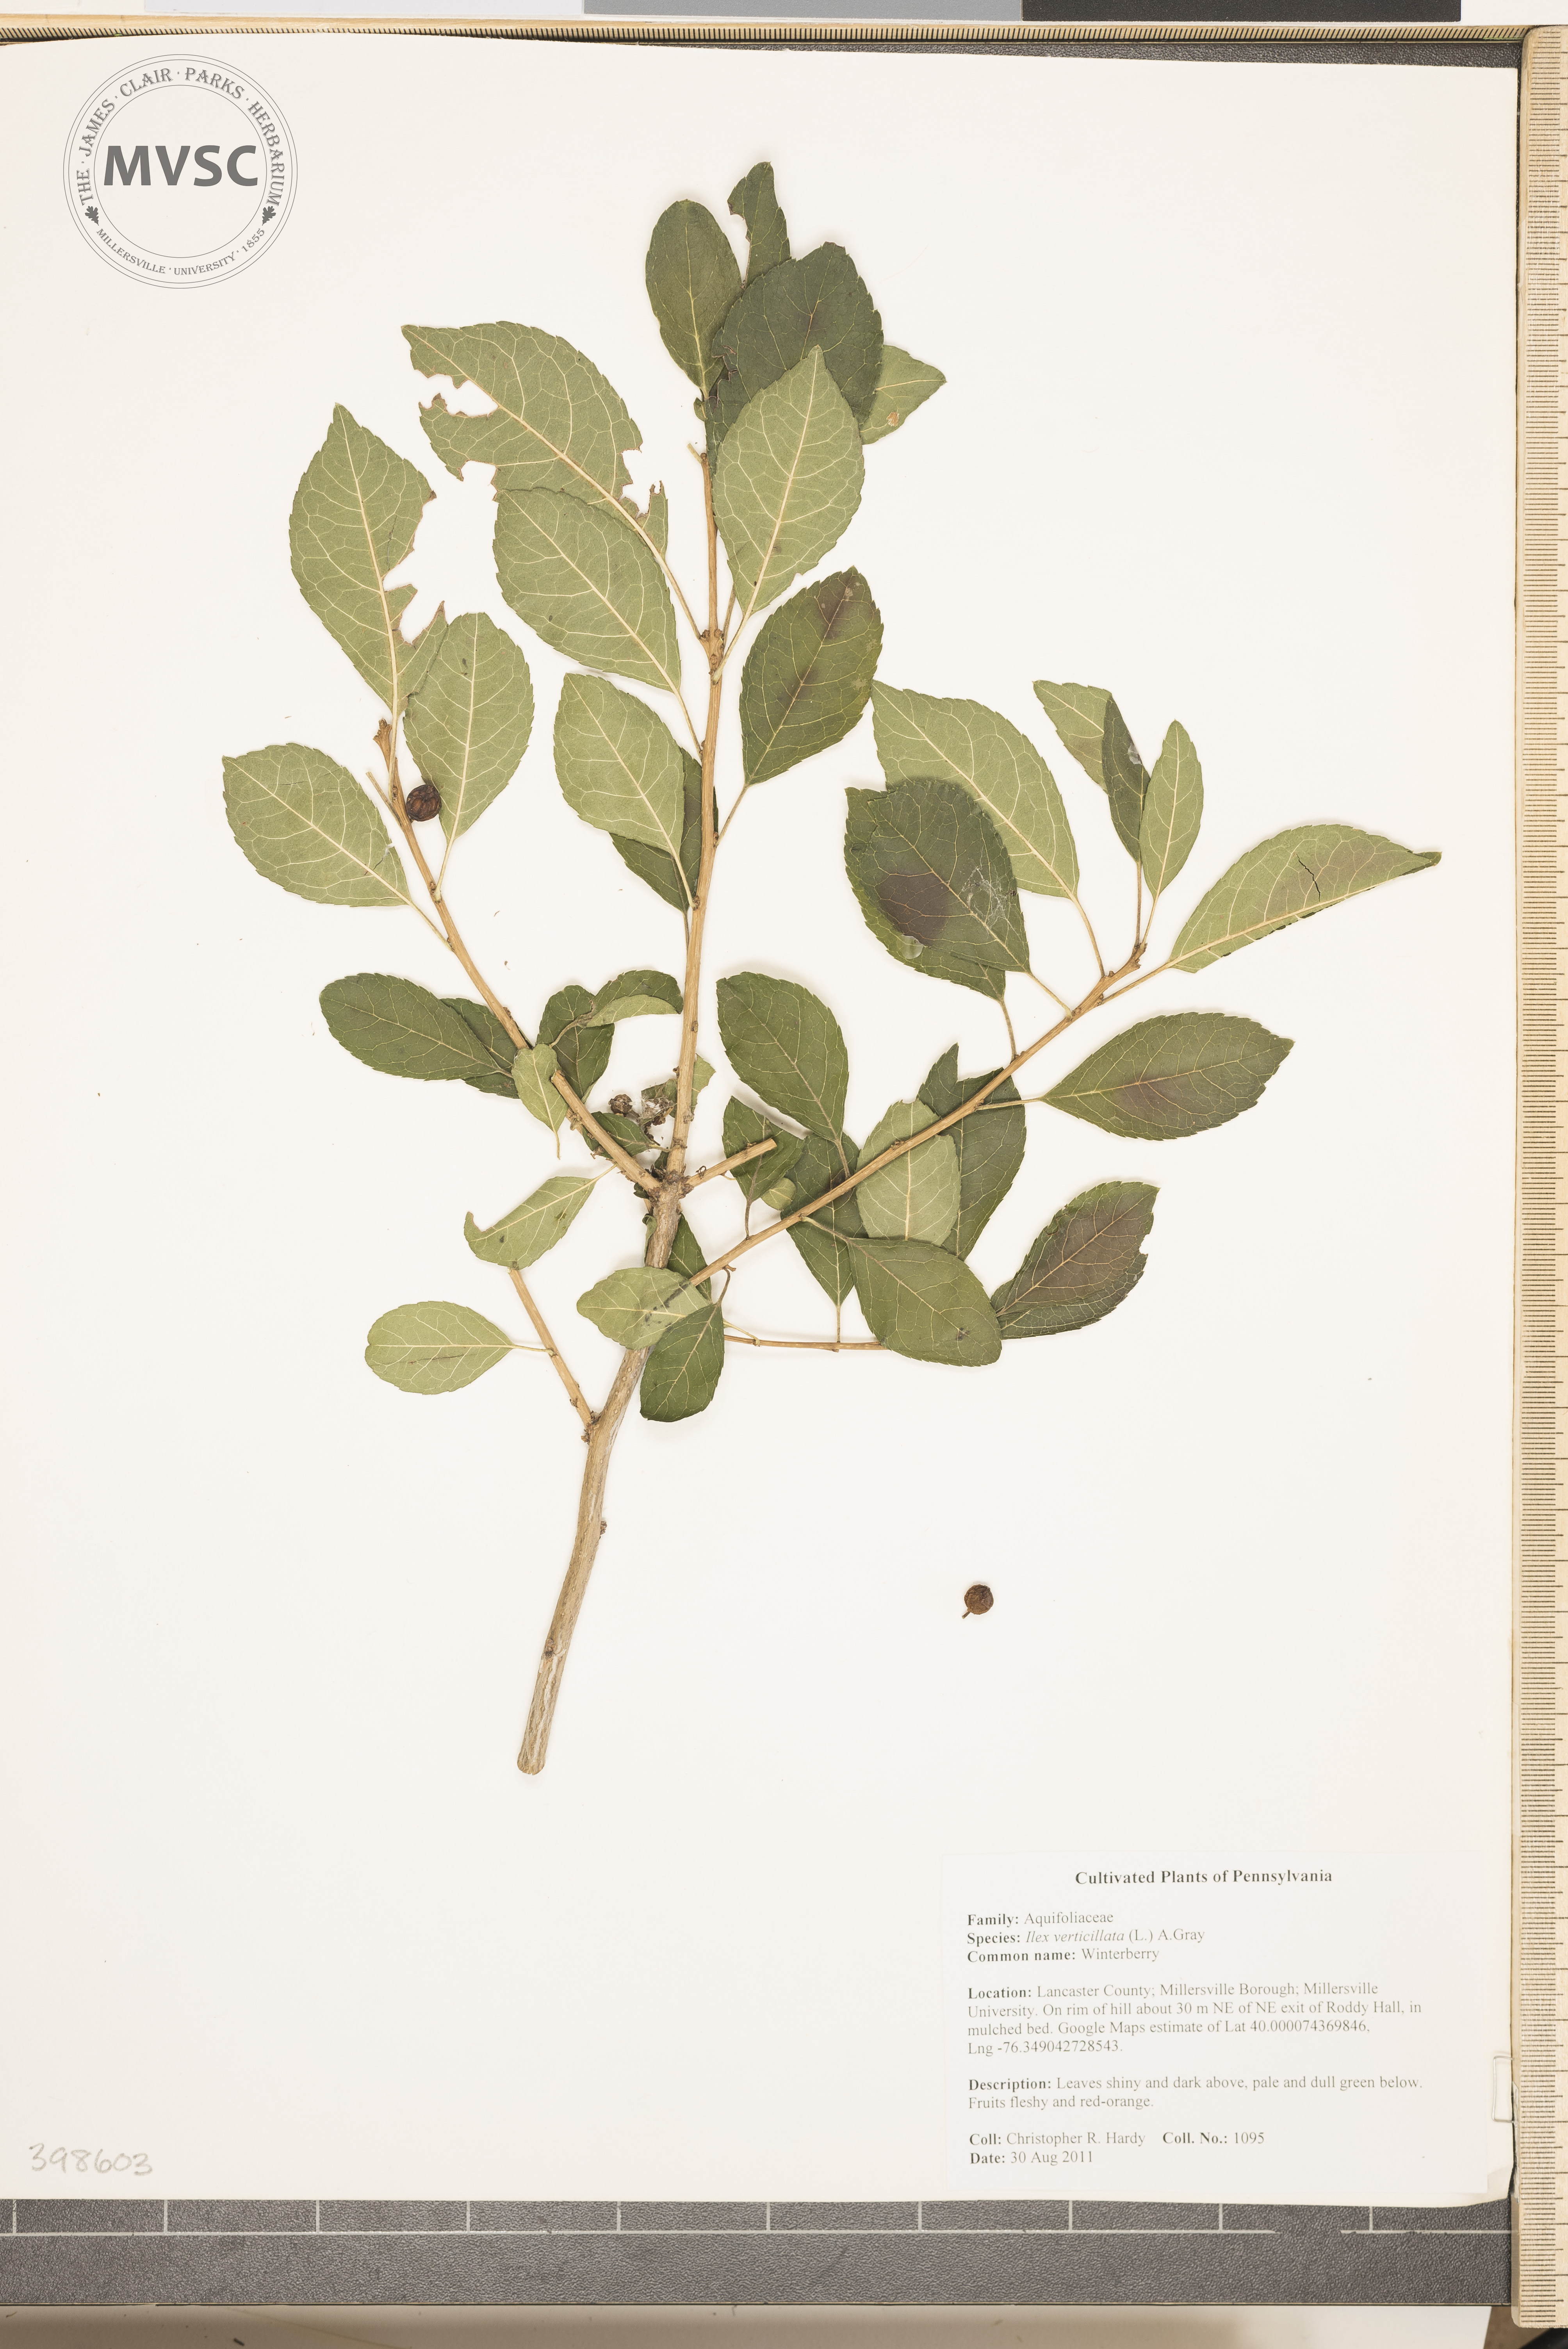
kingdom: Plantae
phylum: Tracheophyta
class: Magnoliopsida
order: Aquifoliales
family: Aquifoliaceae
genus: Ilex
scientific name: Ilex verticillata
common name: Winterberry
